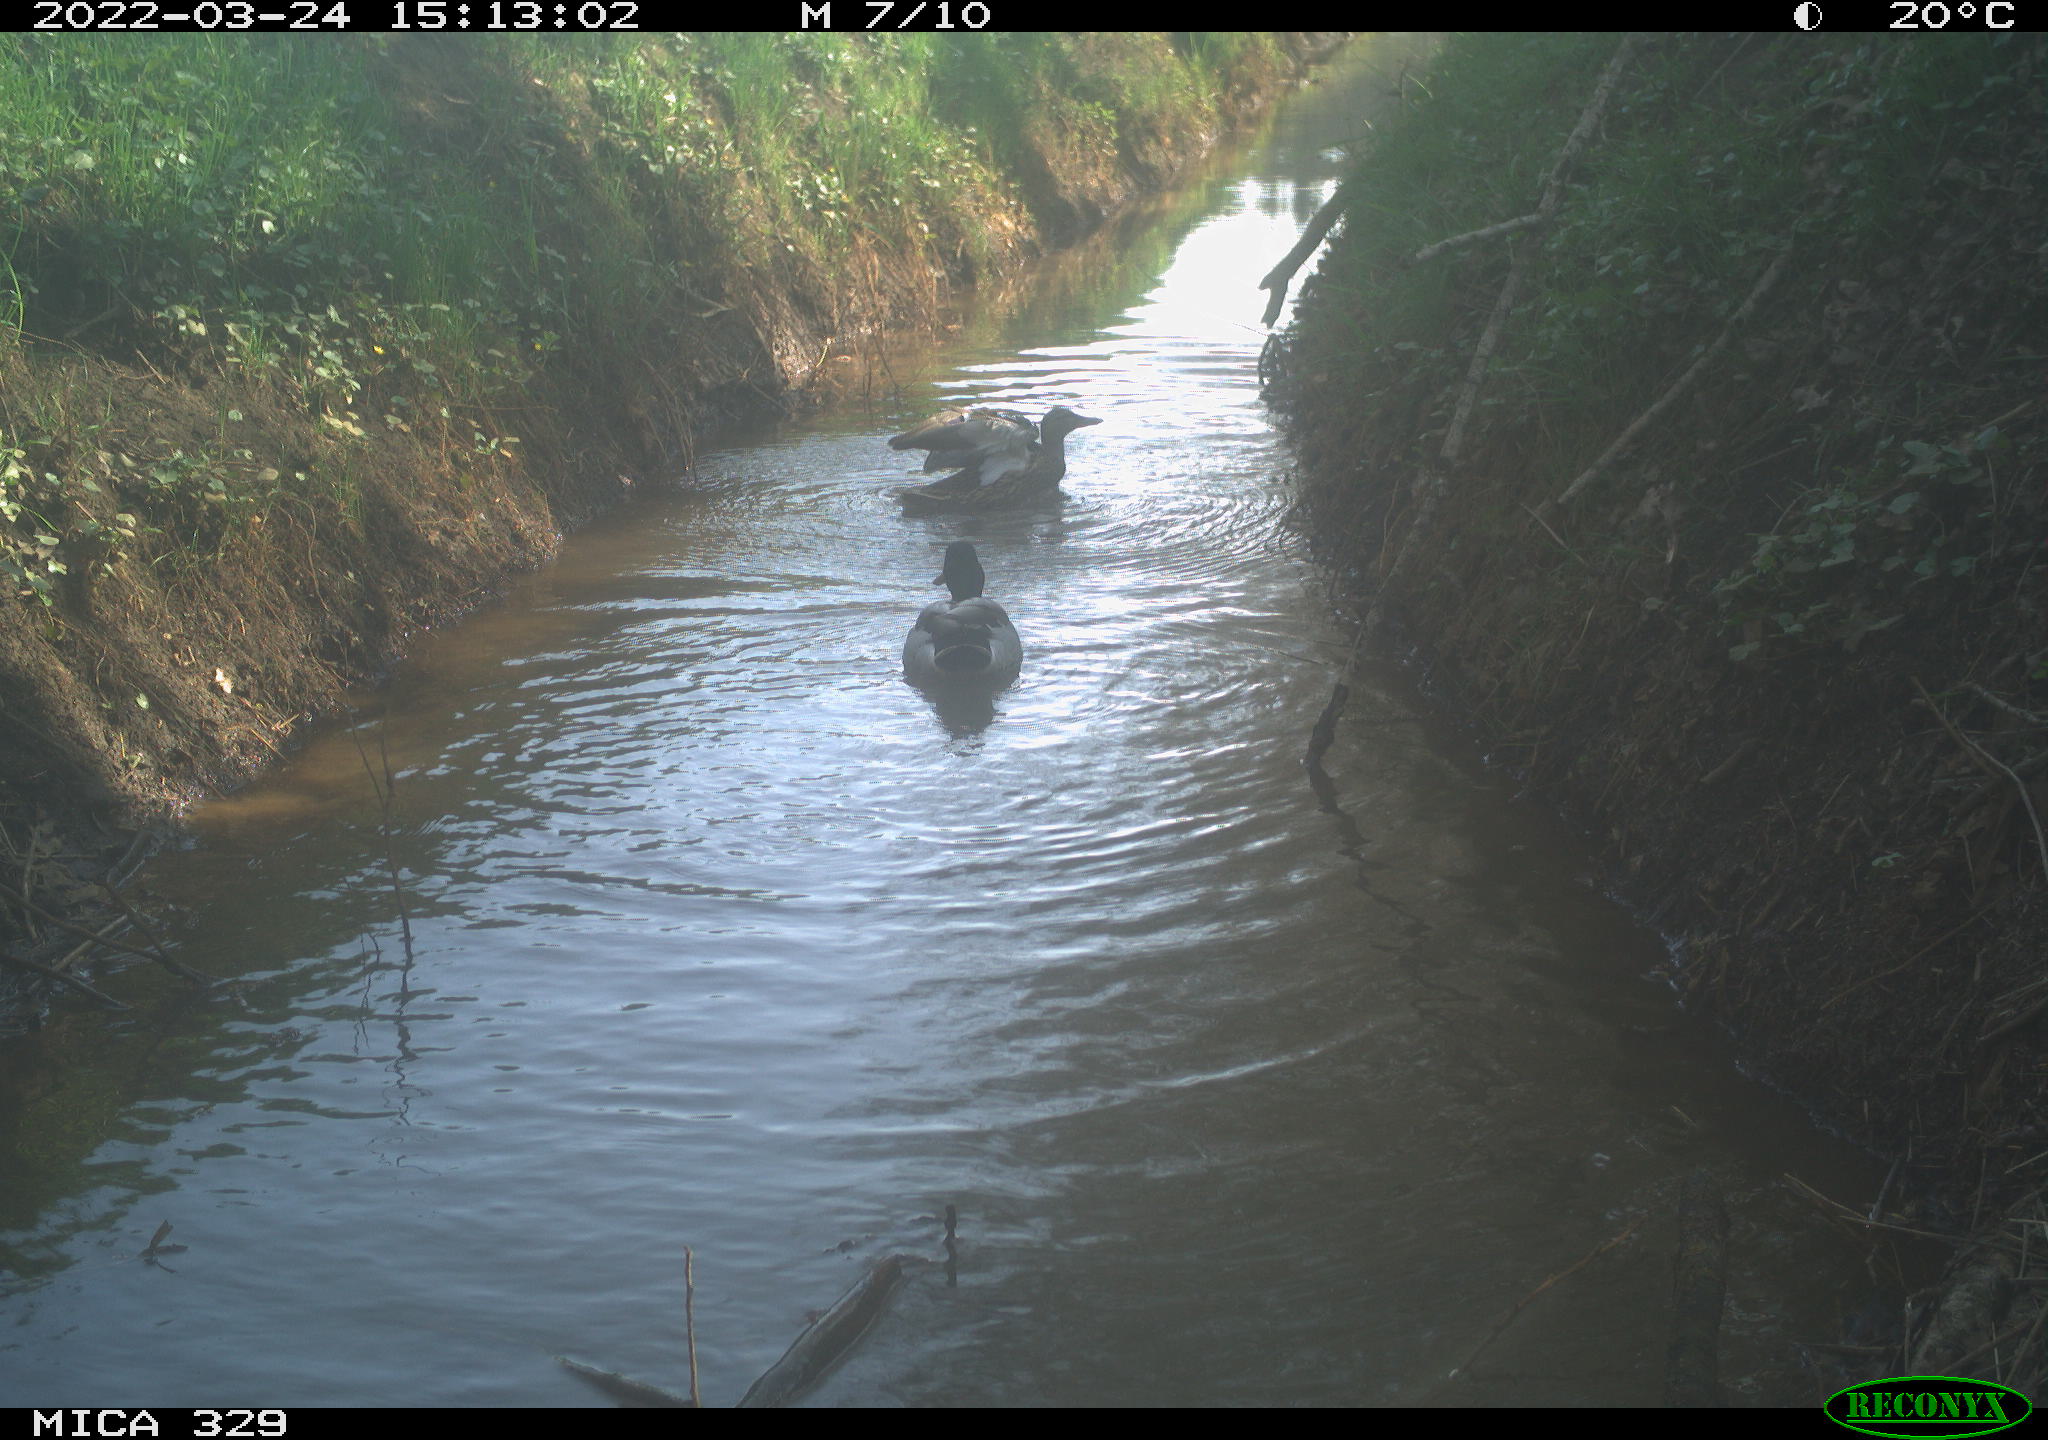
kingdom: Animalia
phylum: Chordata
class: Aves
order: Anseriformes
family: Anatidae
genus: Anas
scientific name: Anas platyrhynchos
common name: Mallard
